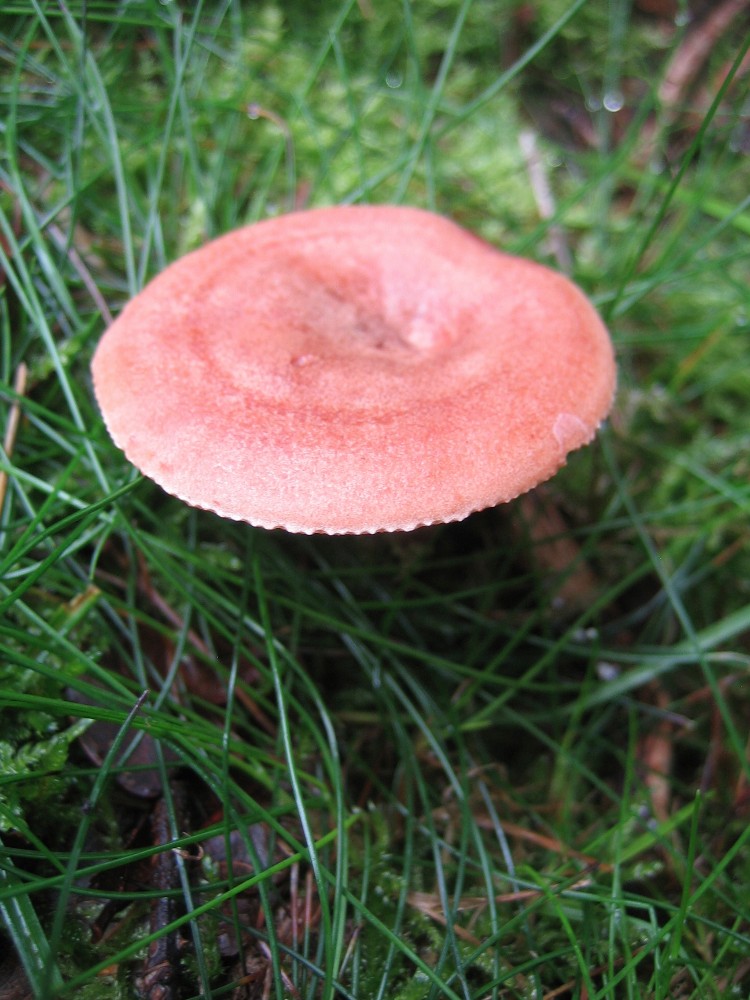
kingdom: Fungi
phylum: Basidiomycota
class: Agaricomycetes
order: Russulales
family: Russulaceae
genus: Lactarius
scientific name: Lactarius quietus
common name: ege-mælkehat
